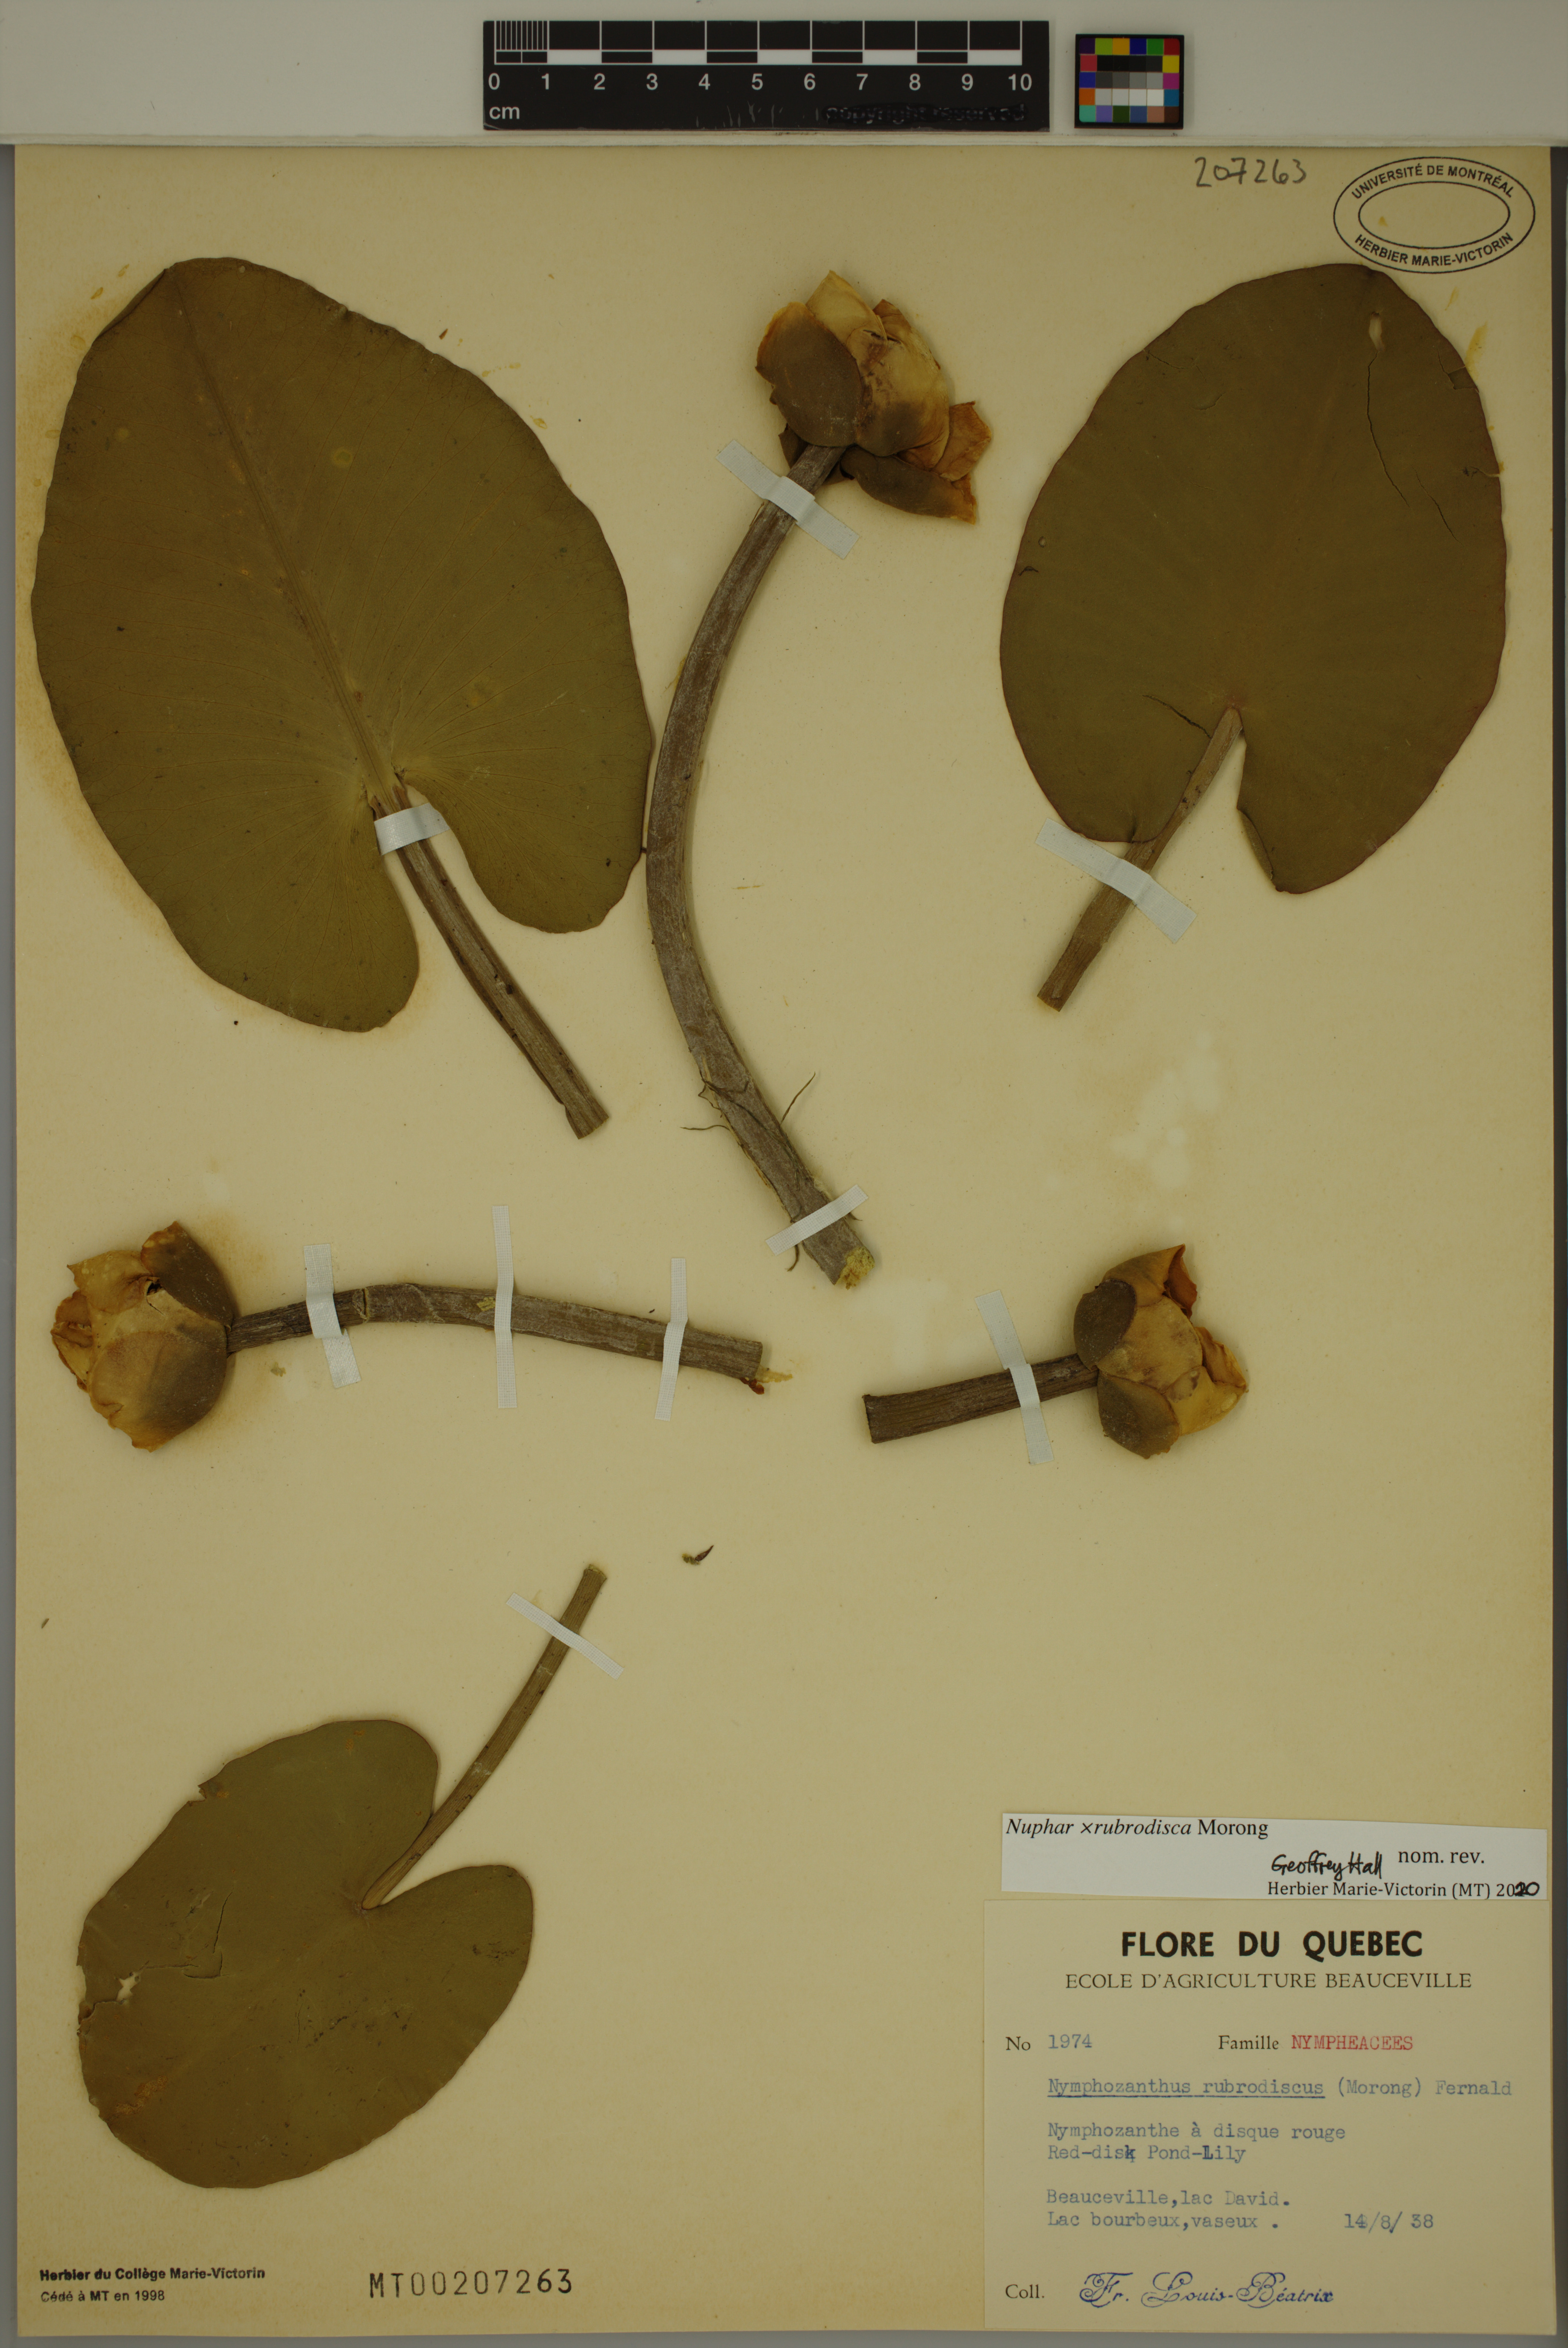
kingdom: Plantae
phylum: Tracheophyta
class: Magnoliopsida
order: Nymphaeales
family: Nymphaeaceae
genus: Nuphar
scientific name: Nuphar rubrodisca
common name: Yellow pond-lily
